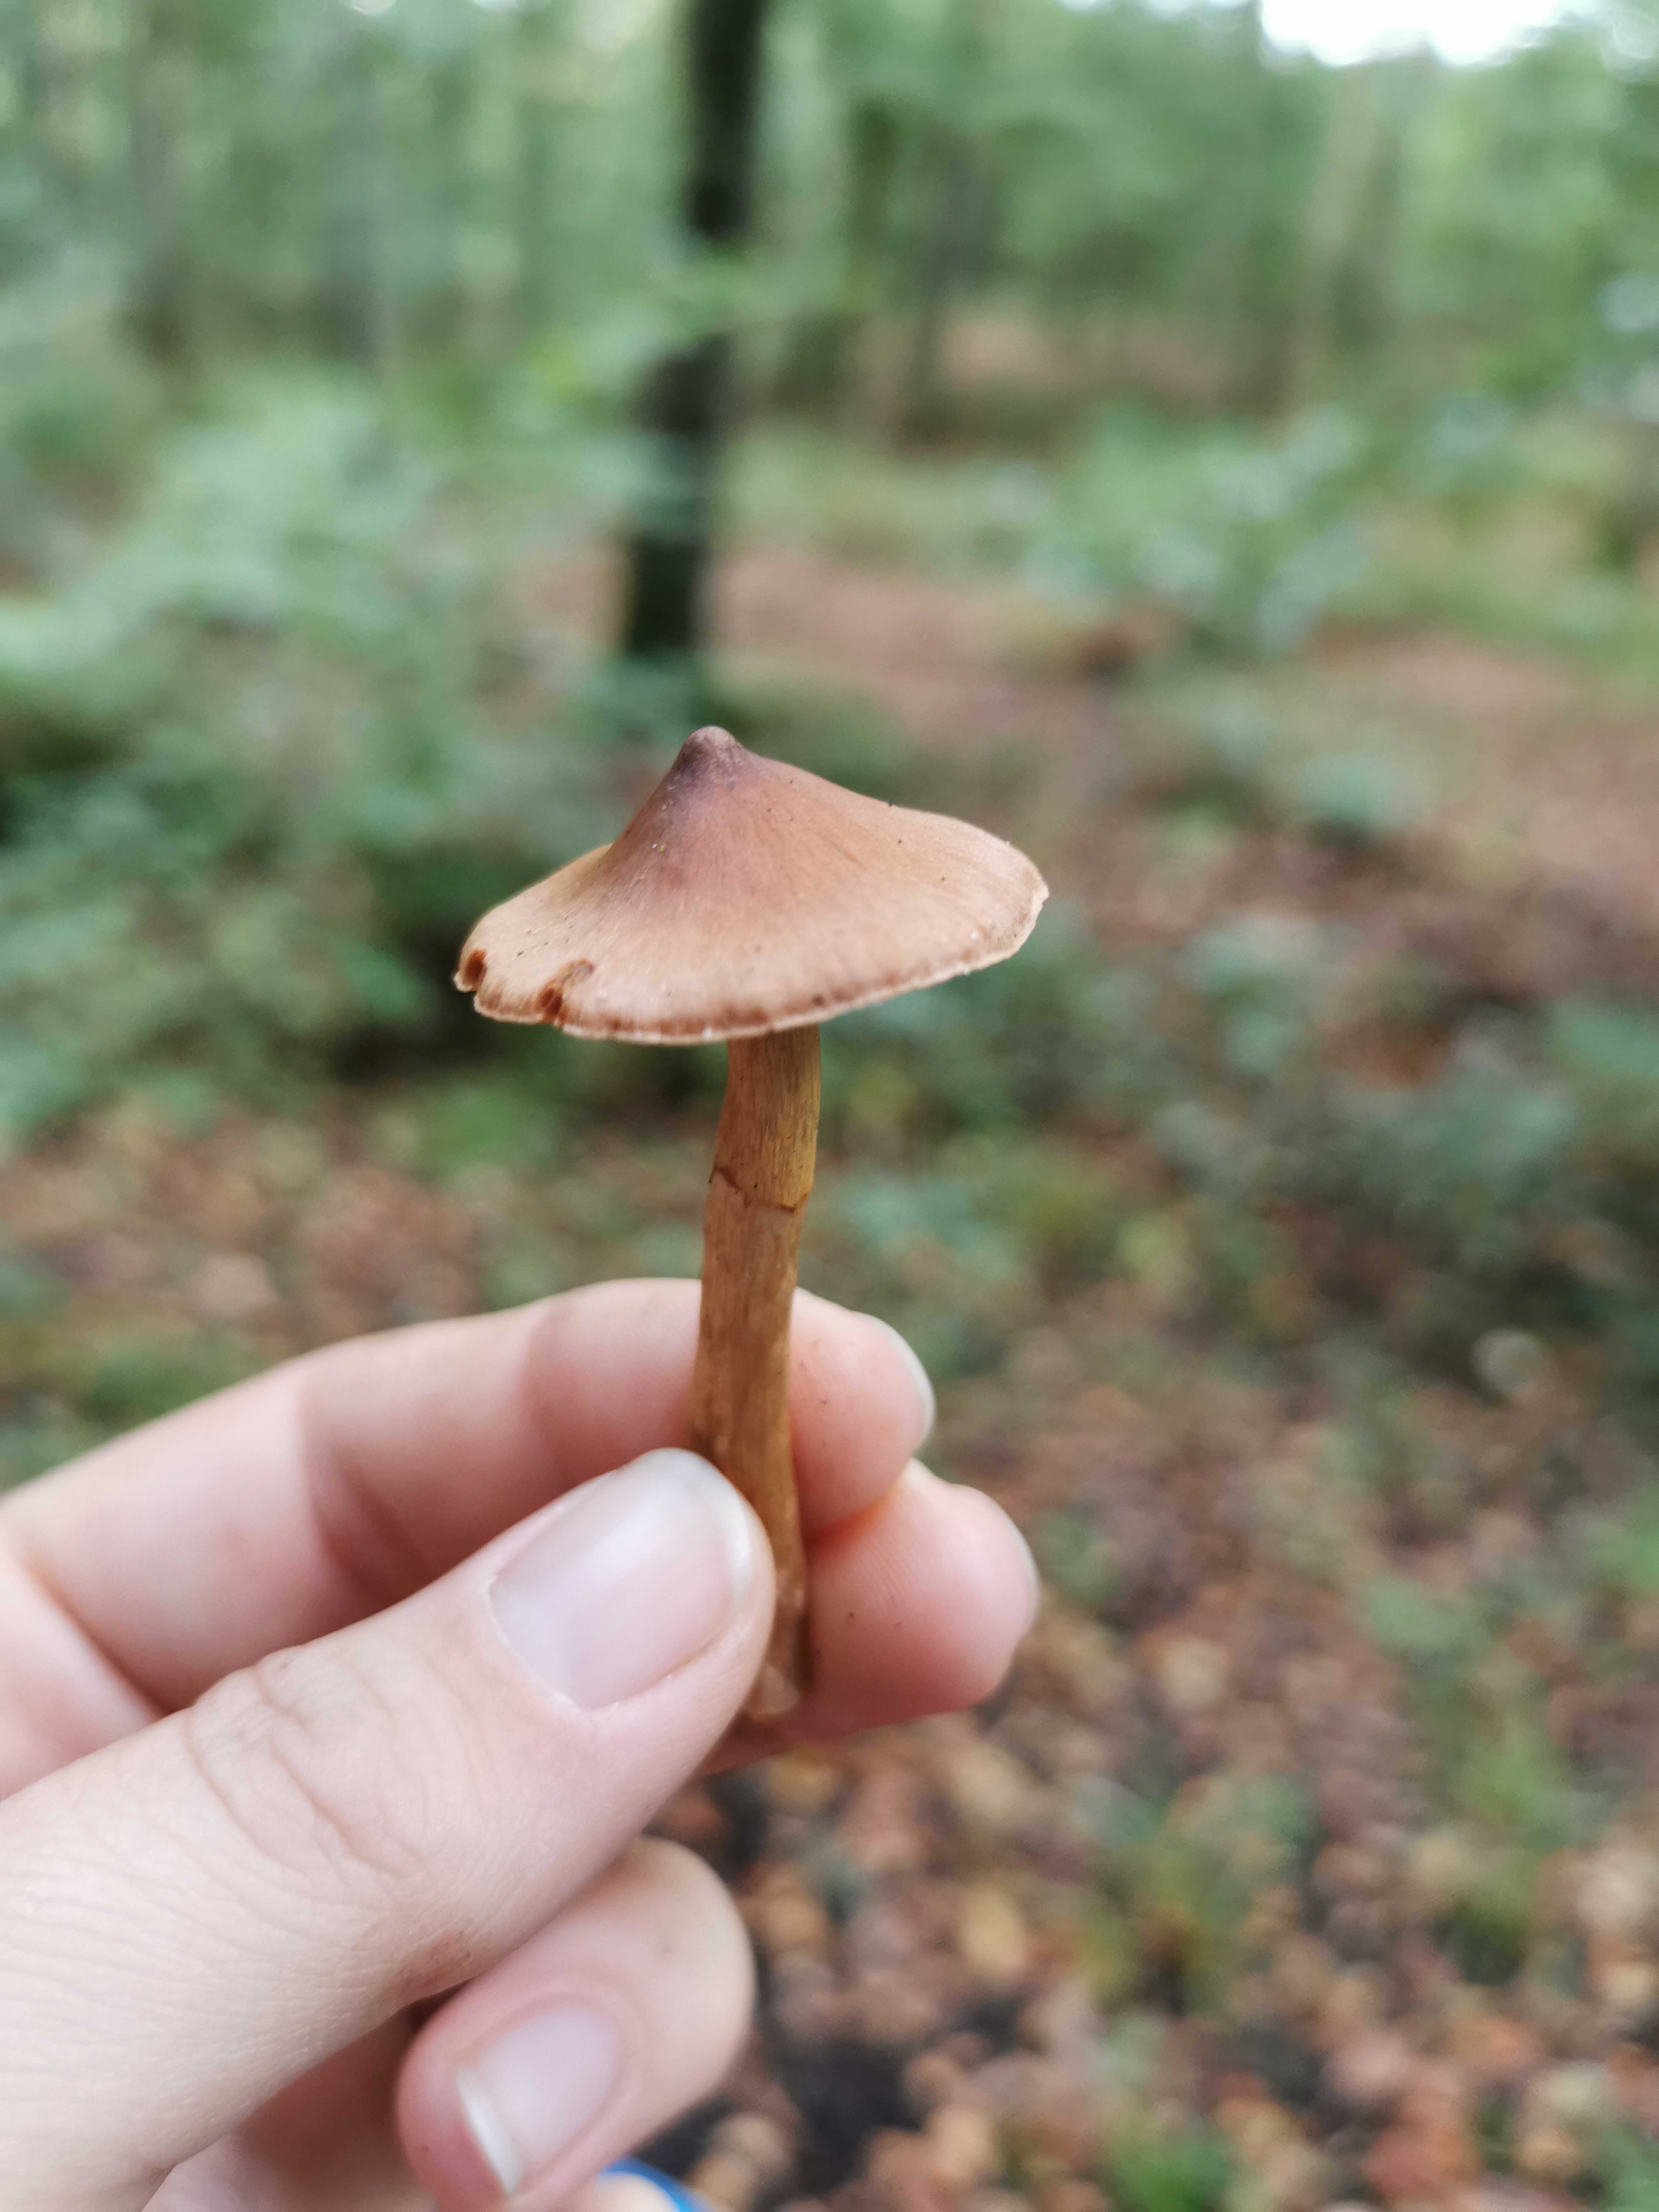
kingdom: Fungi
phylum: Basidiomycota
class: Agaricomycetes
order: Agaricales
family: Cortinariaceae
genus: Cortinarius
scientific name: Cortinarius
